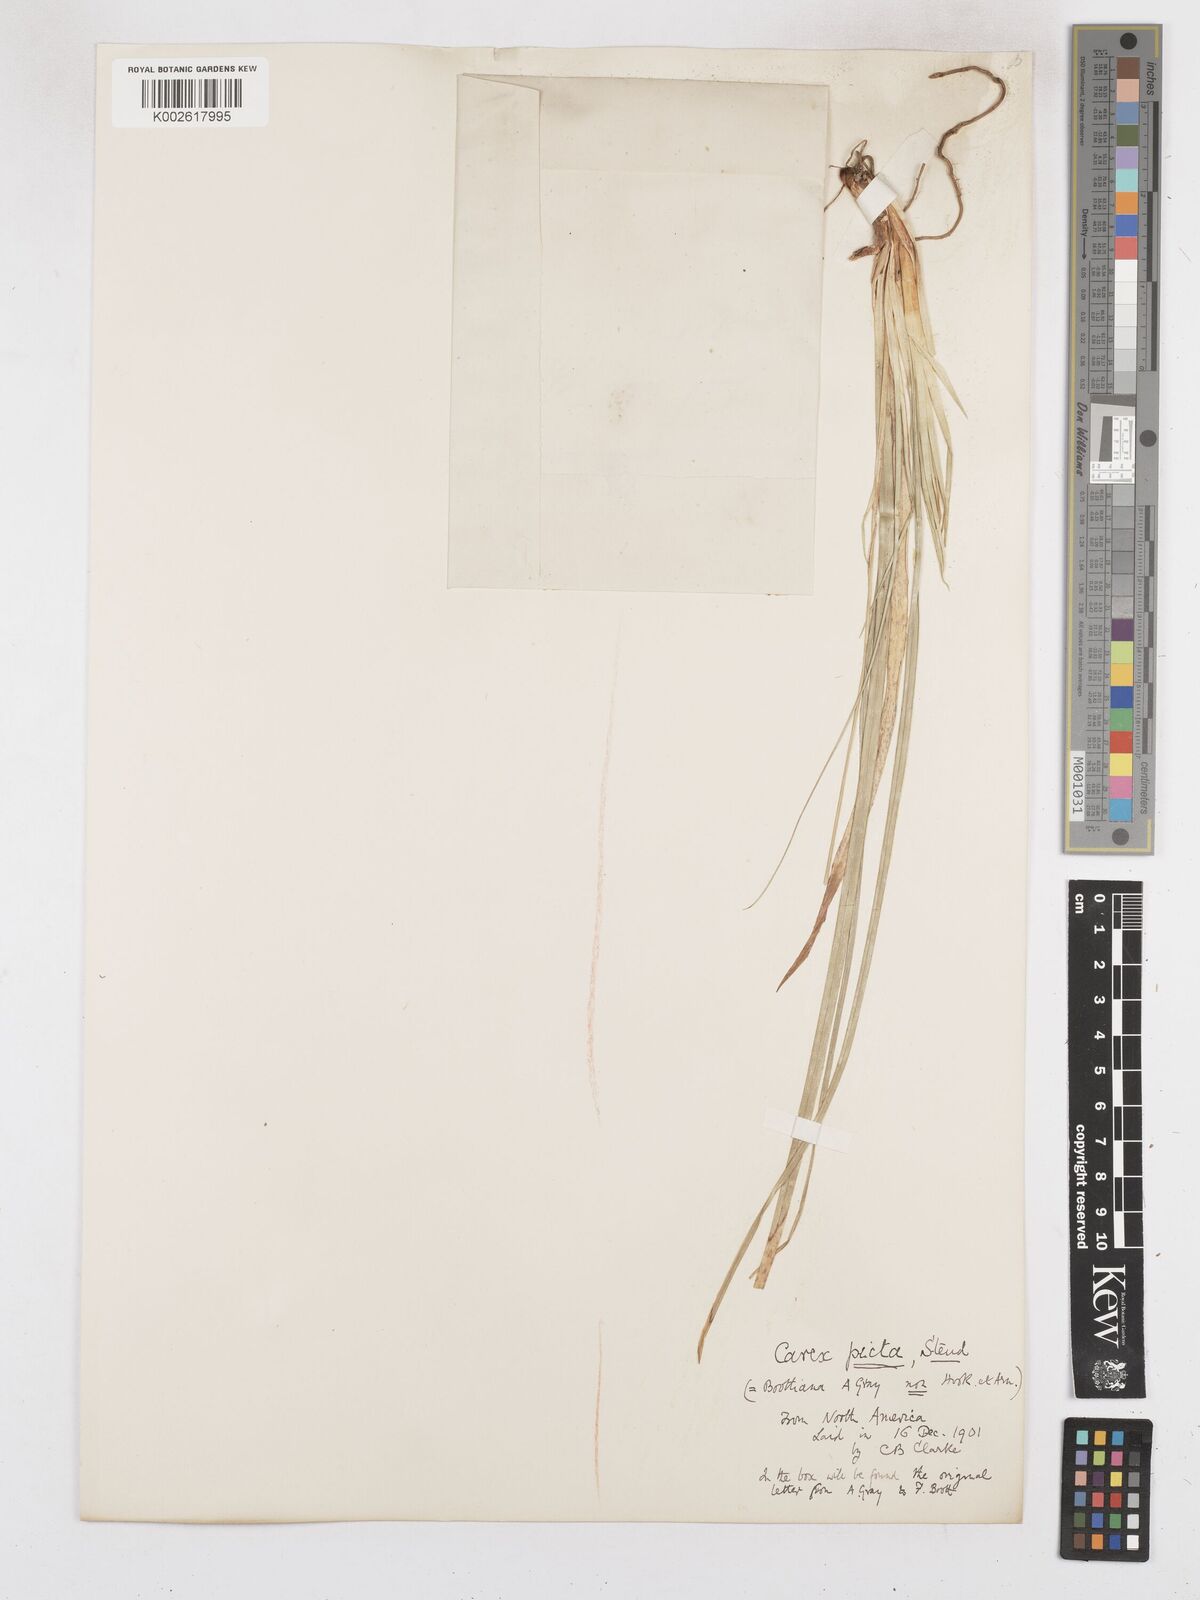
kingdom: Plantae
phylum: Tracheophyta
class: Liliopsida
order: Poales
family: Cyperaceae
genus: Carex
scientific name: Carex picta
